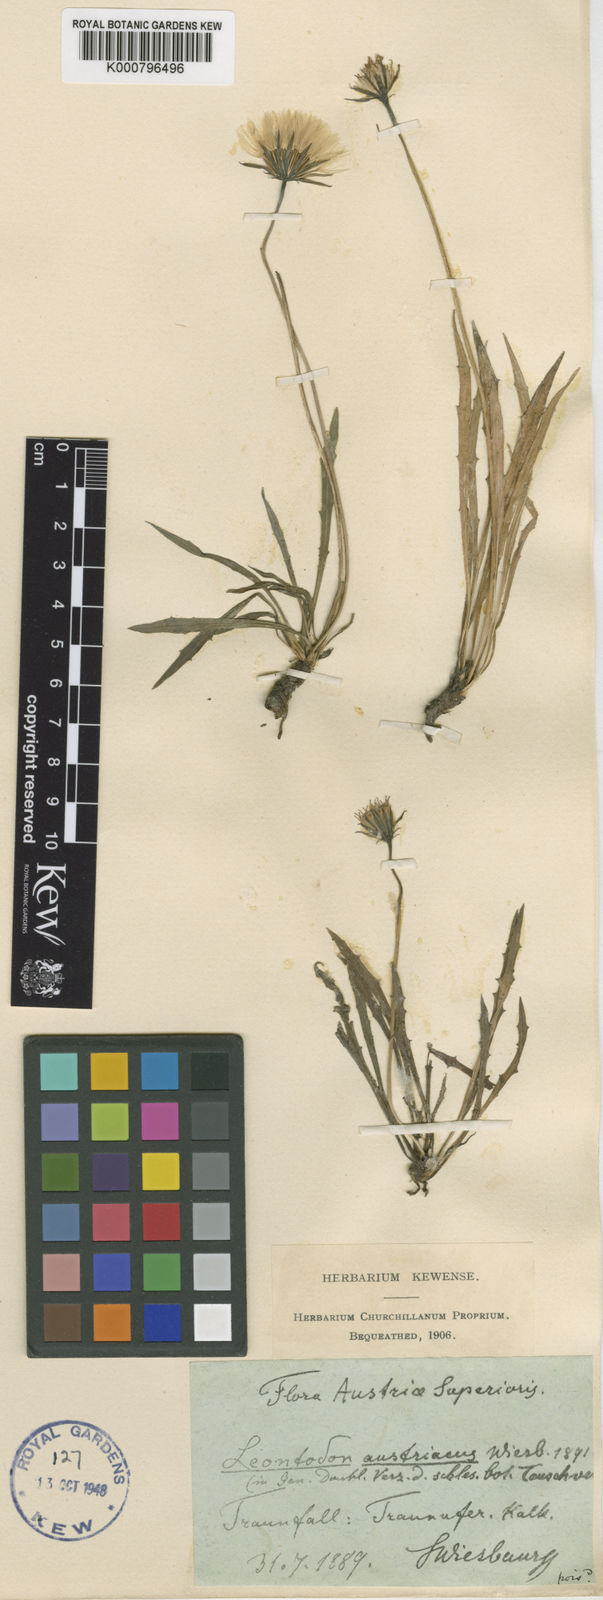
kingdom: Plantae
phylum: Tracheophyta
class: Magnoliopsida
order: Asterales
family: Asteraceae
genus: Leontodon
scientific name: Leontodon
